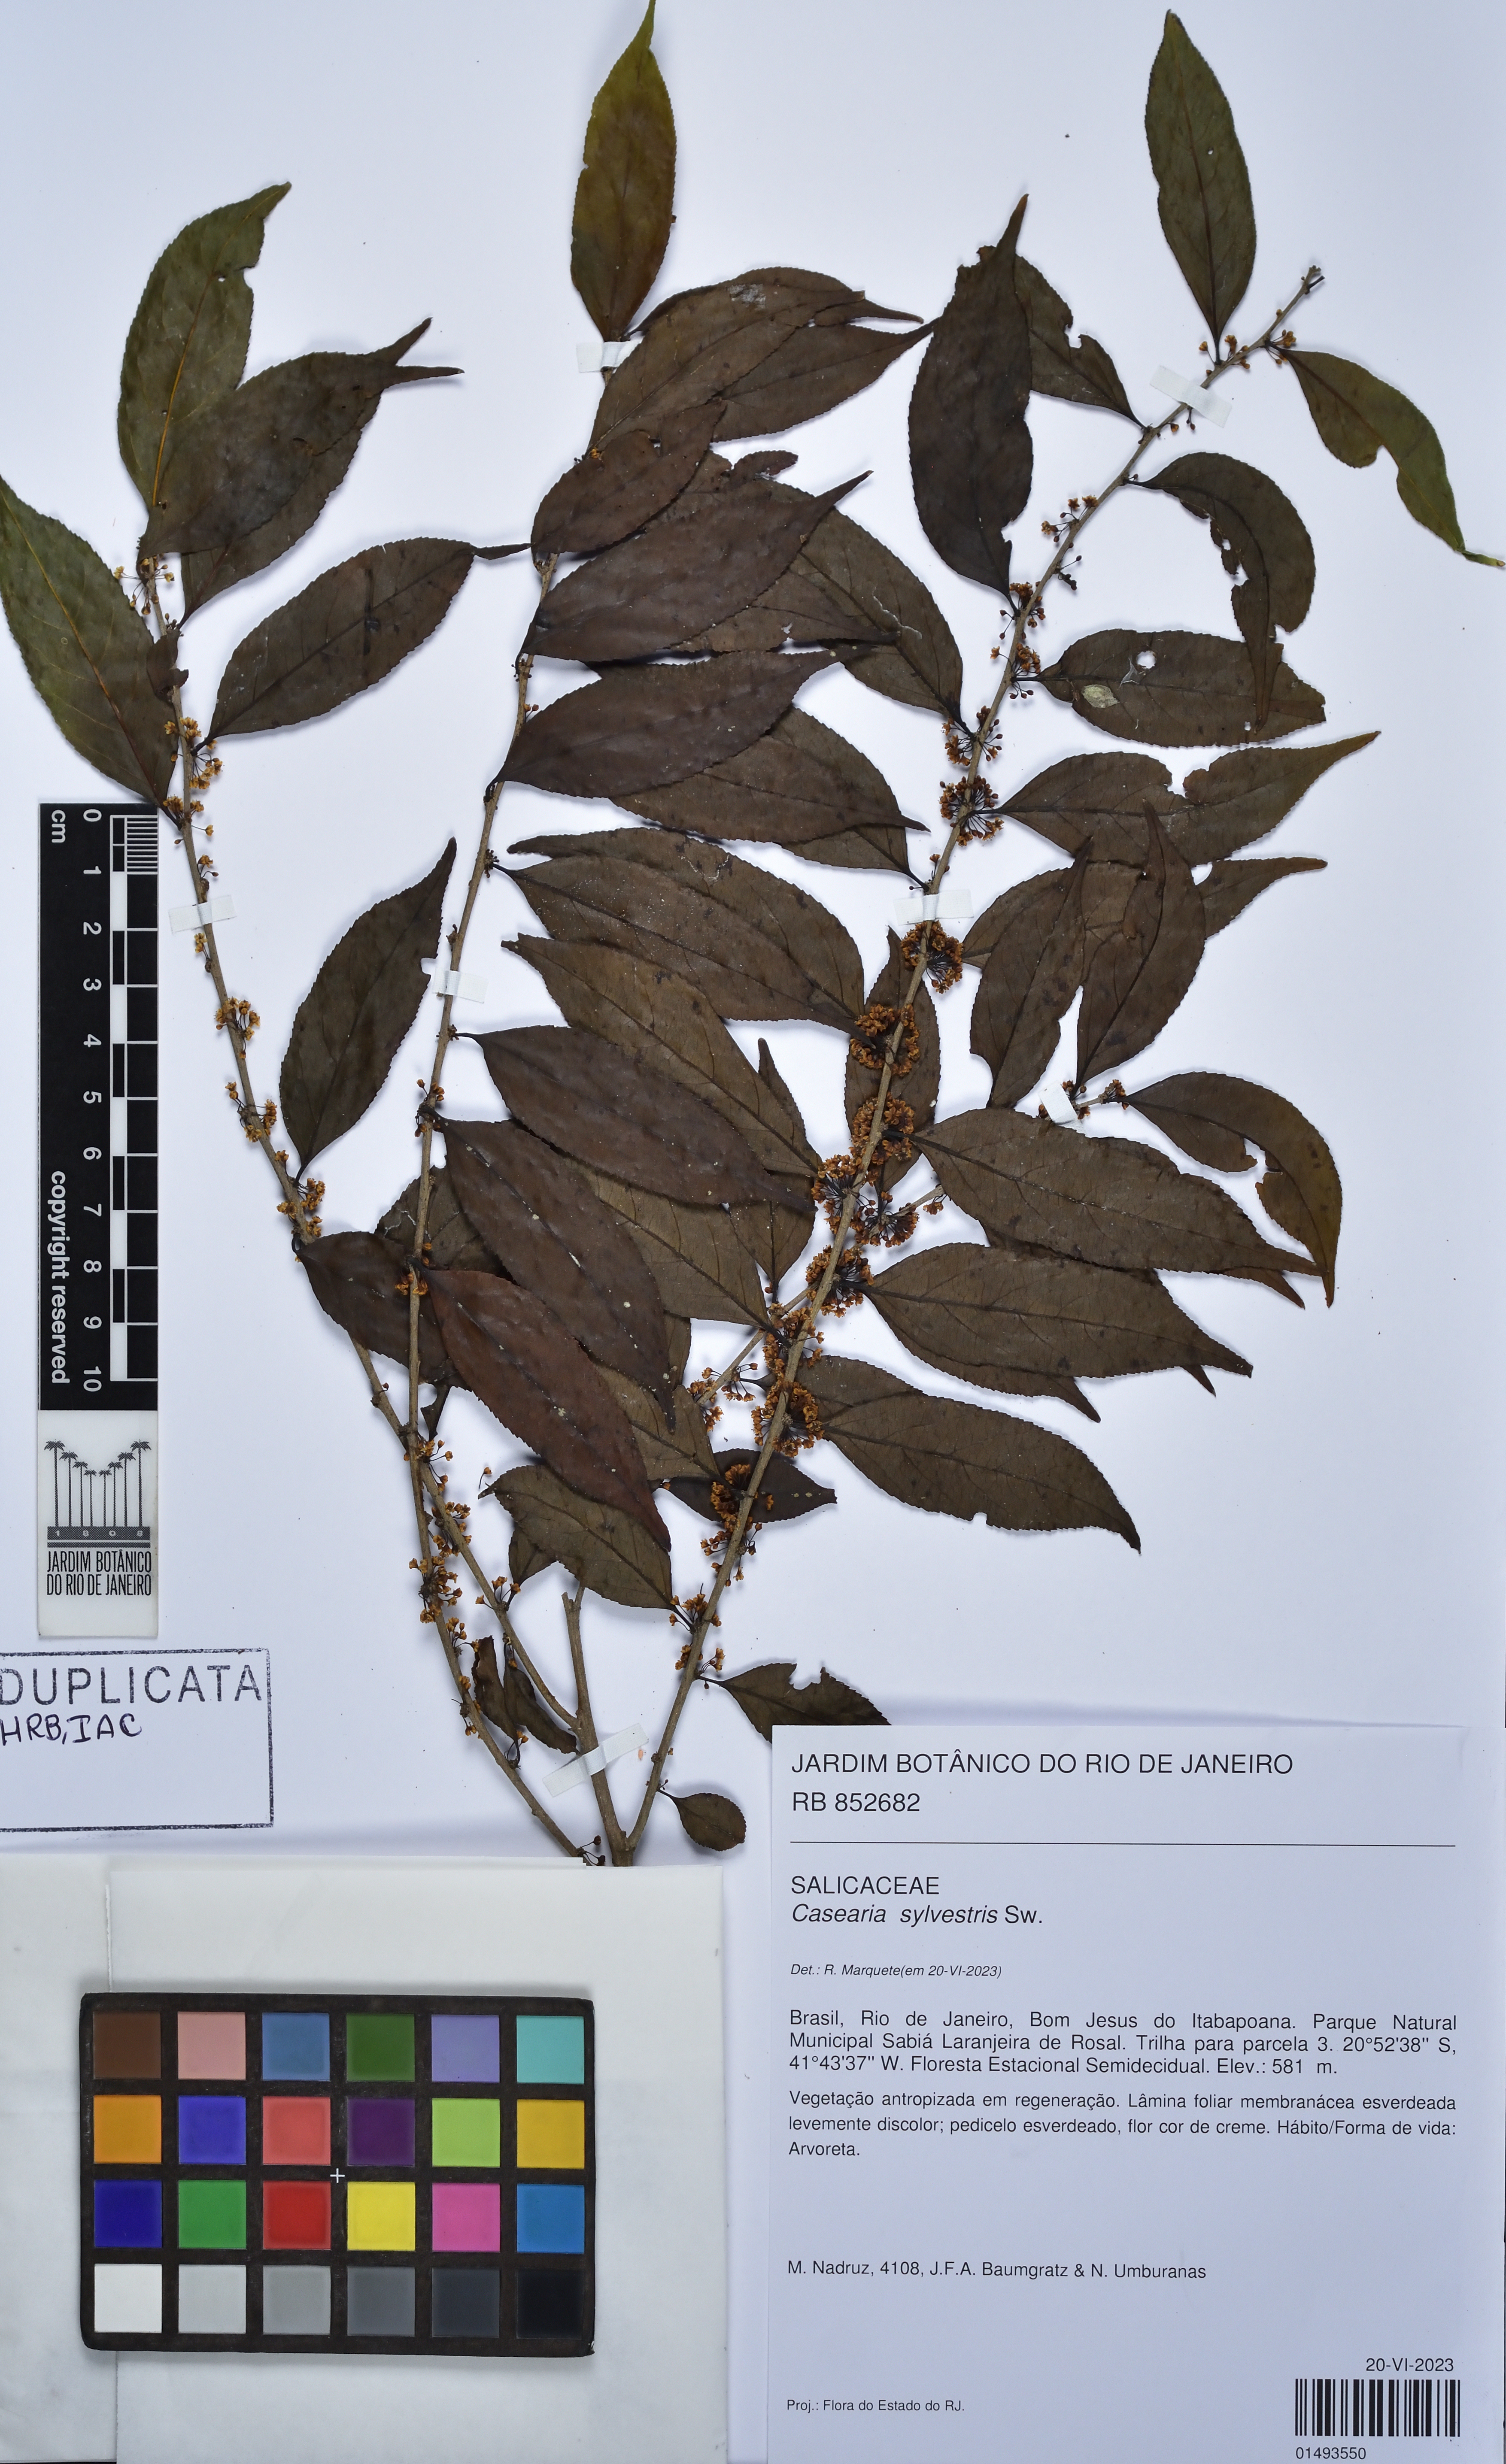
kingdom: Plantae
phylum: Tracheophyta
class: Magnoliopsida
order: Malpighiales
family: Salicaceae
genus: Casearia
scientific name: Casearia sylvestris
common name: Wild sage
